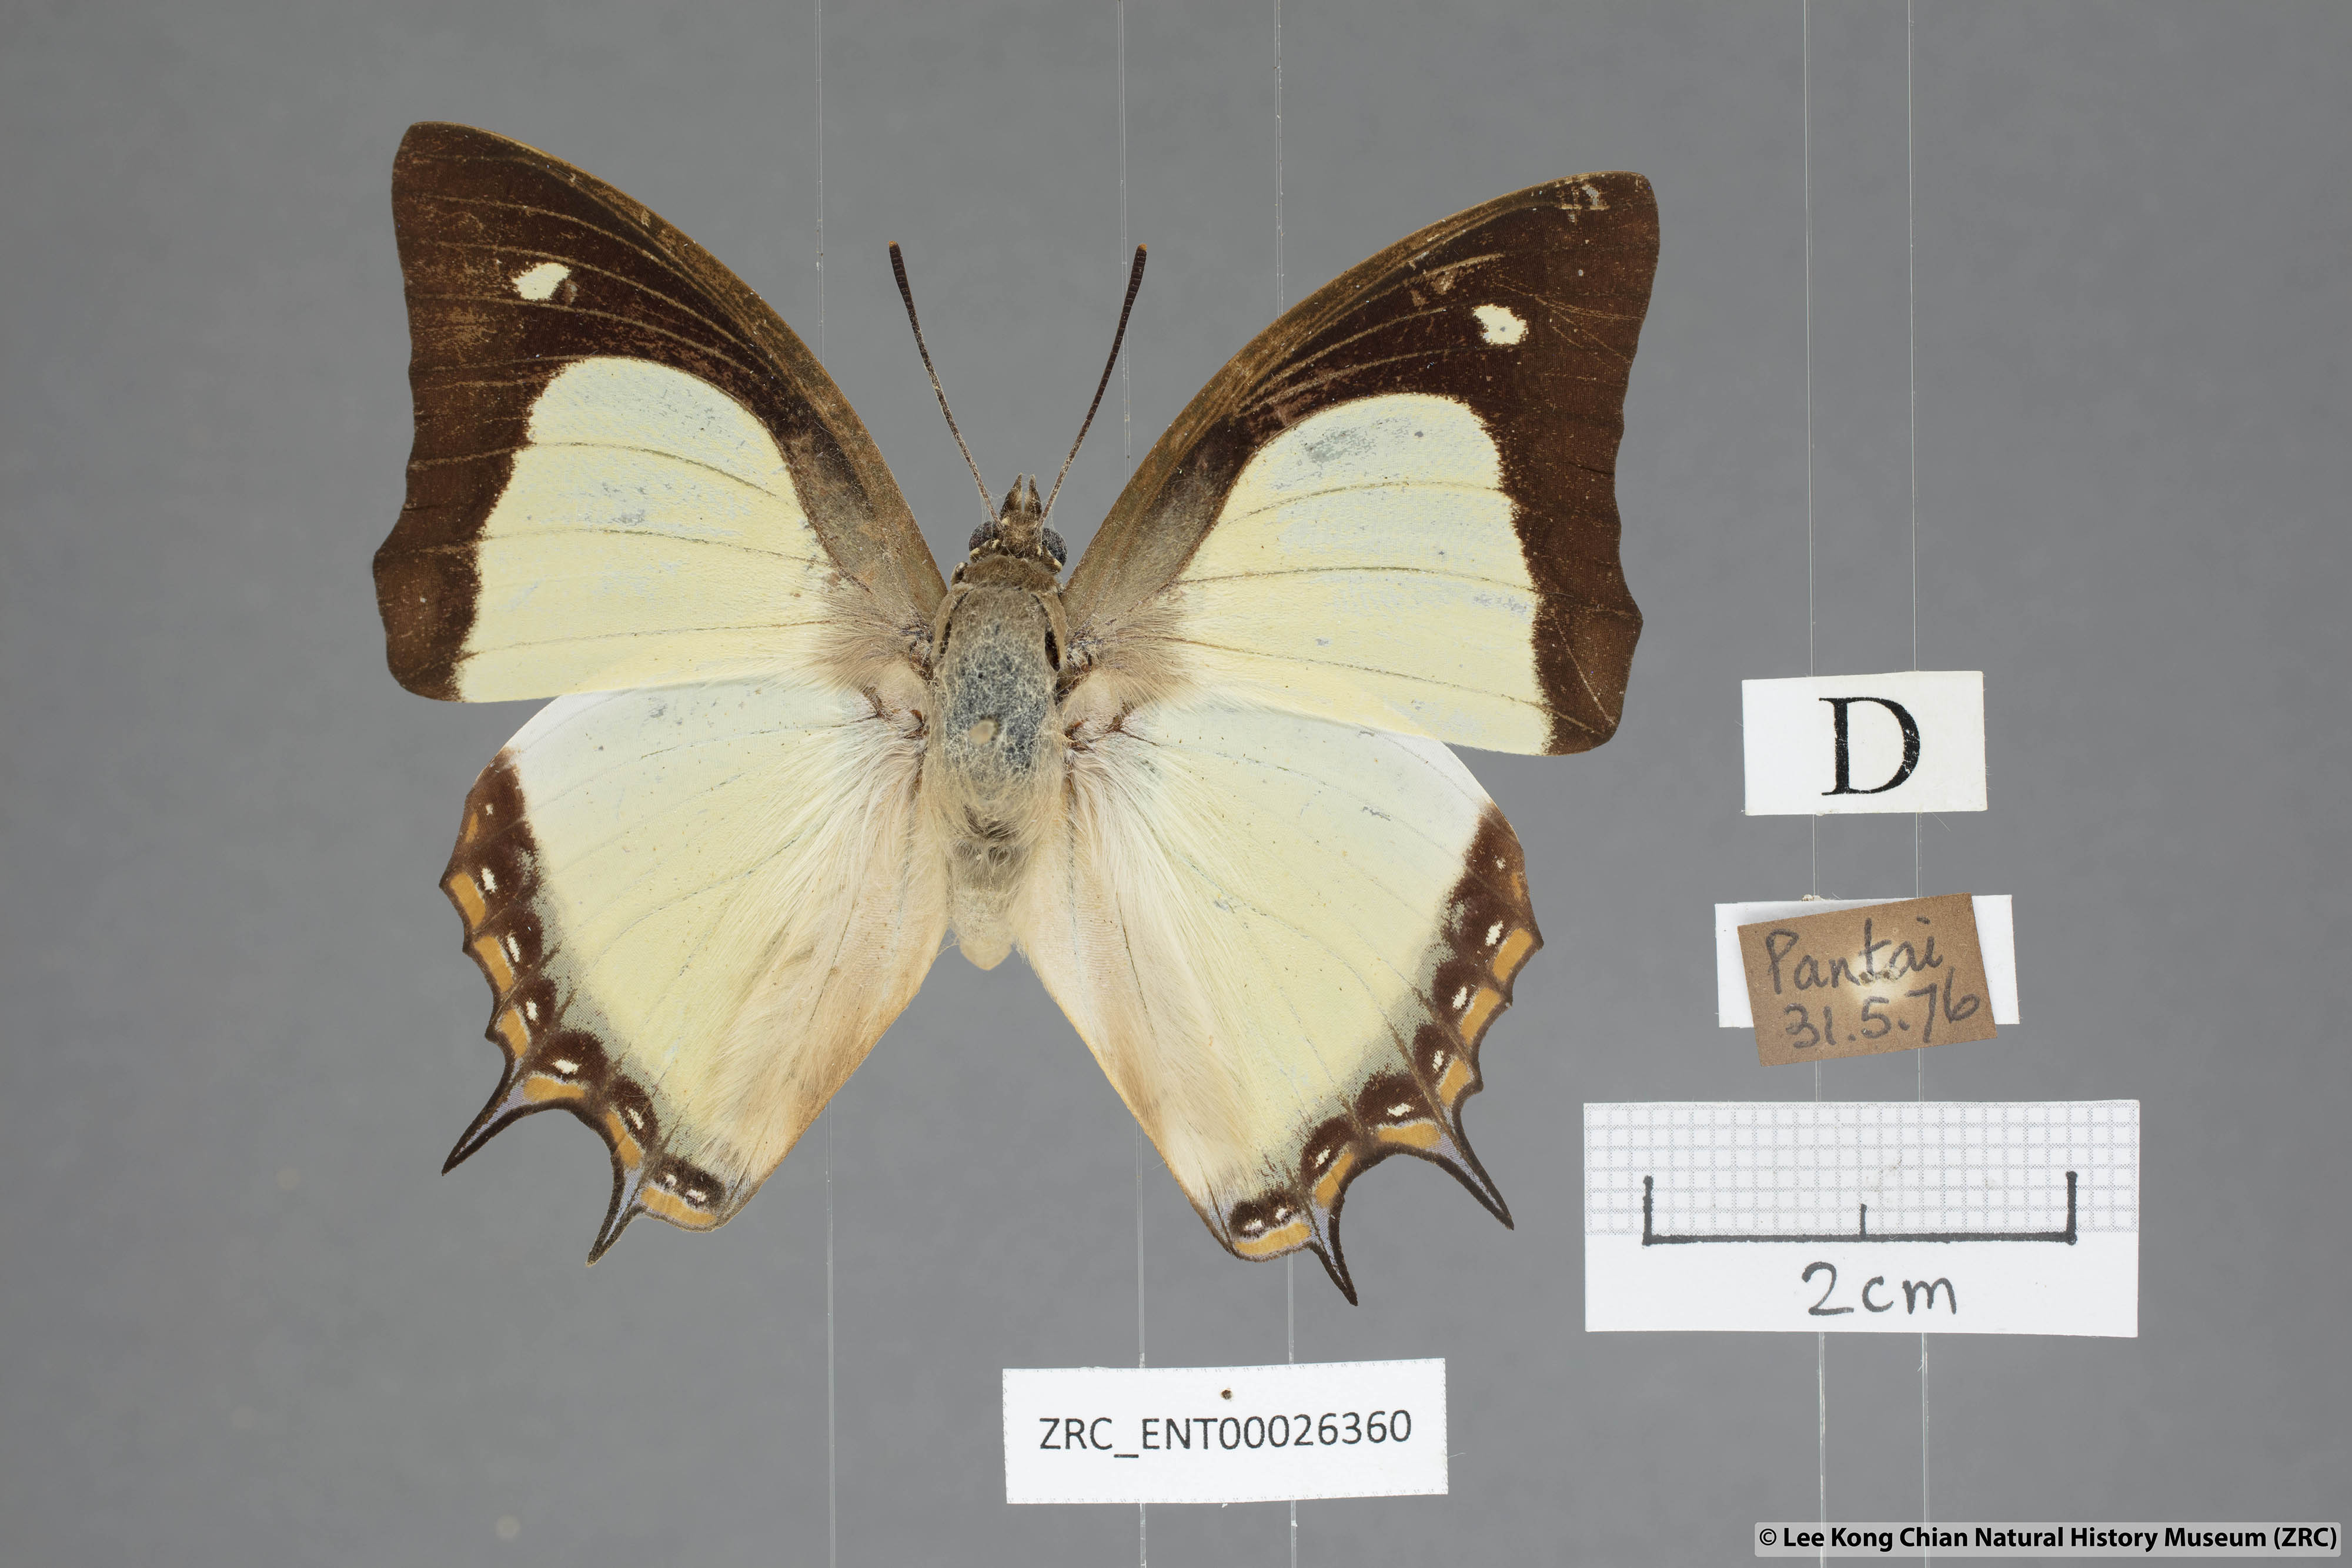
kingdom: Animalia
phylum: Arthropoda
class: Insecta
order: Lepidoptera
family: Nymphalidae
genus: Polyura
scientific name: Polyura jalysus
